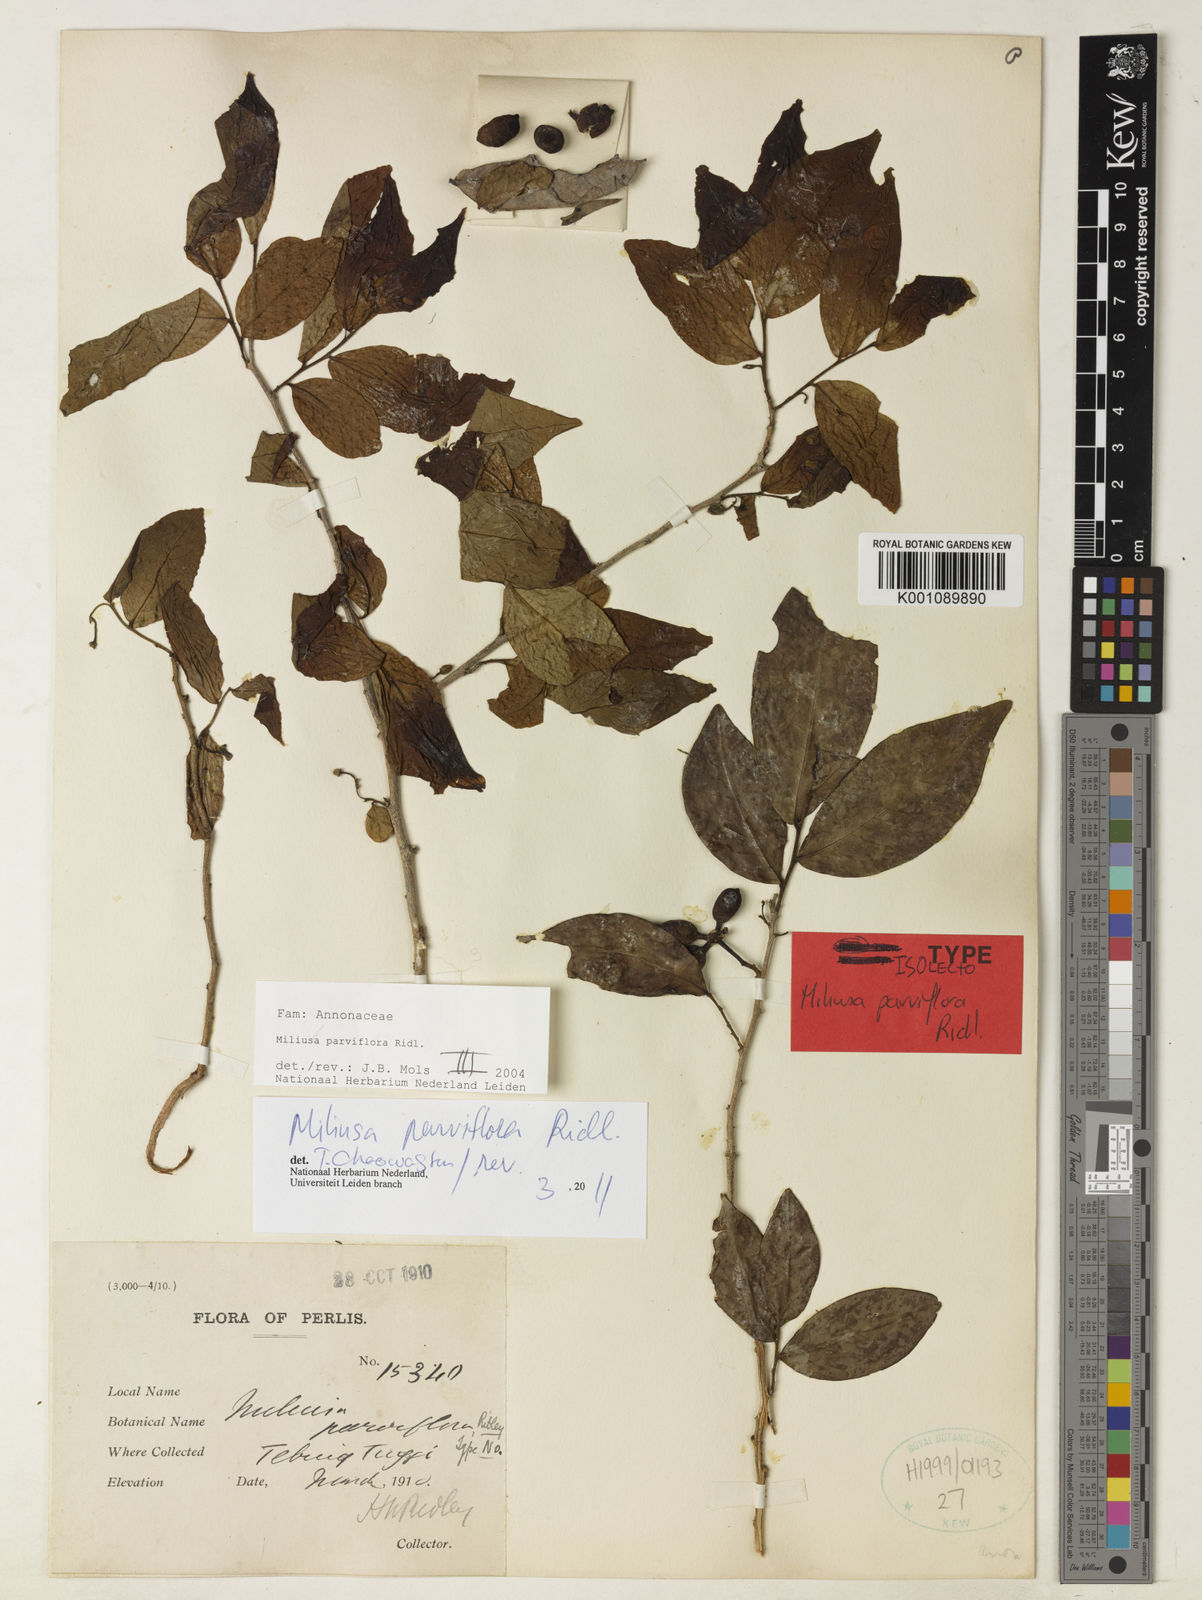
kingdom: Plantae
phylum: Tracheophyta
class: Magnoliopsida
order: Magnoliales
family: Annonaceae
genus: Miliusa
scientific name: Miliusa parviflora
